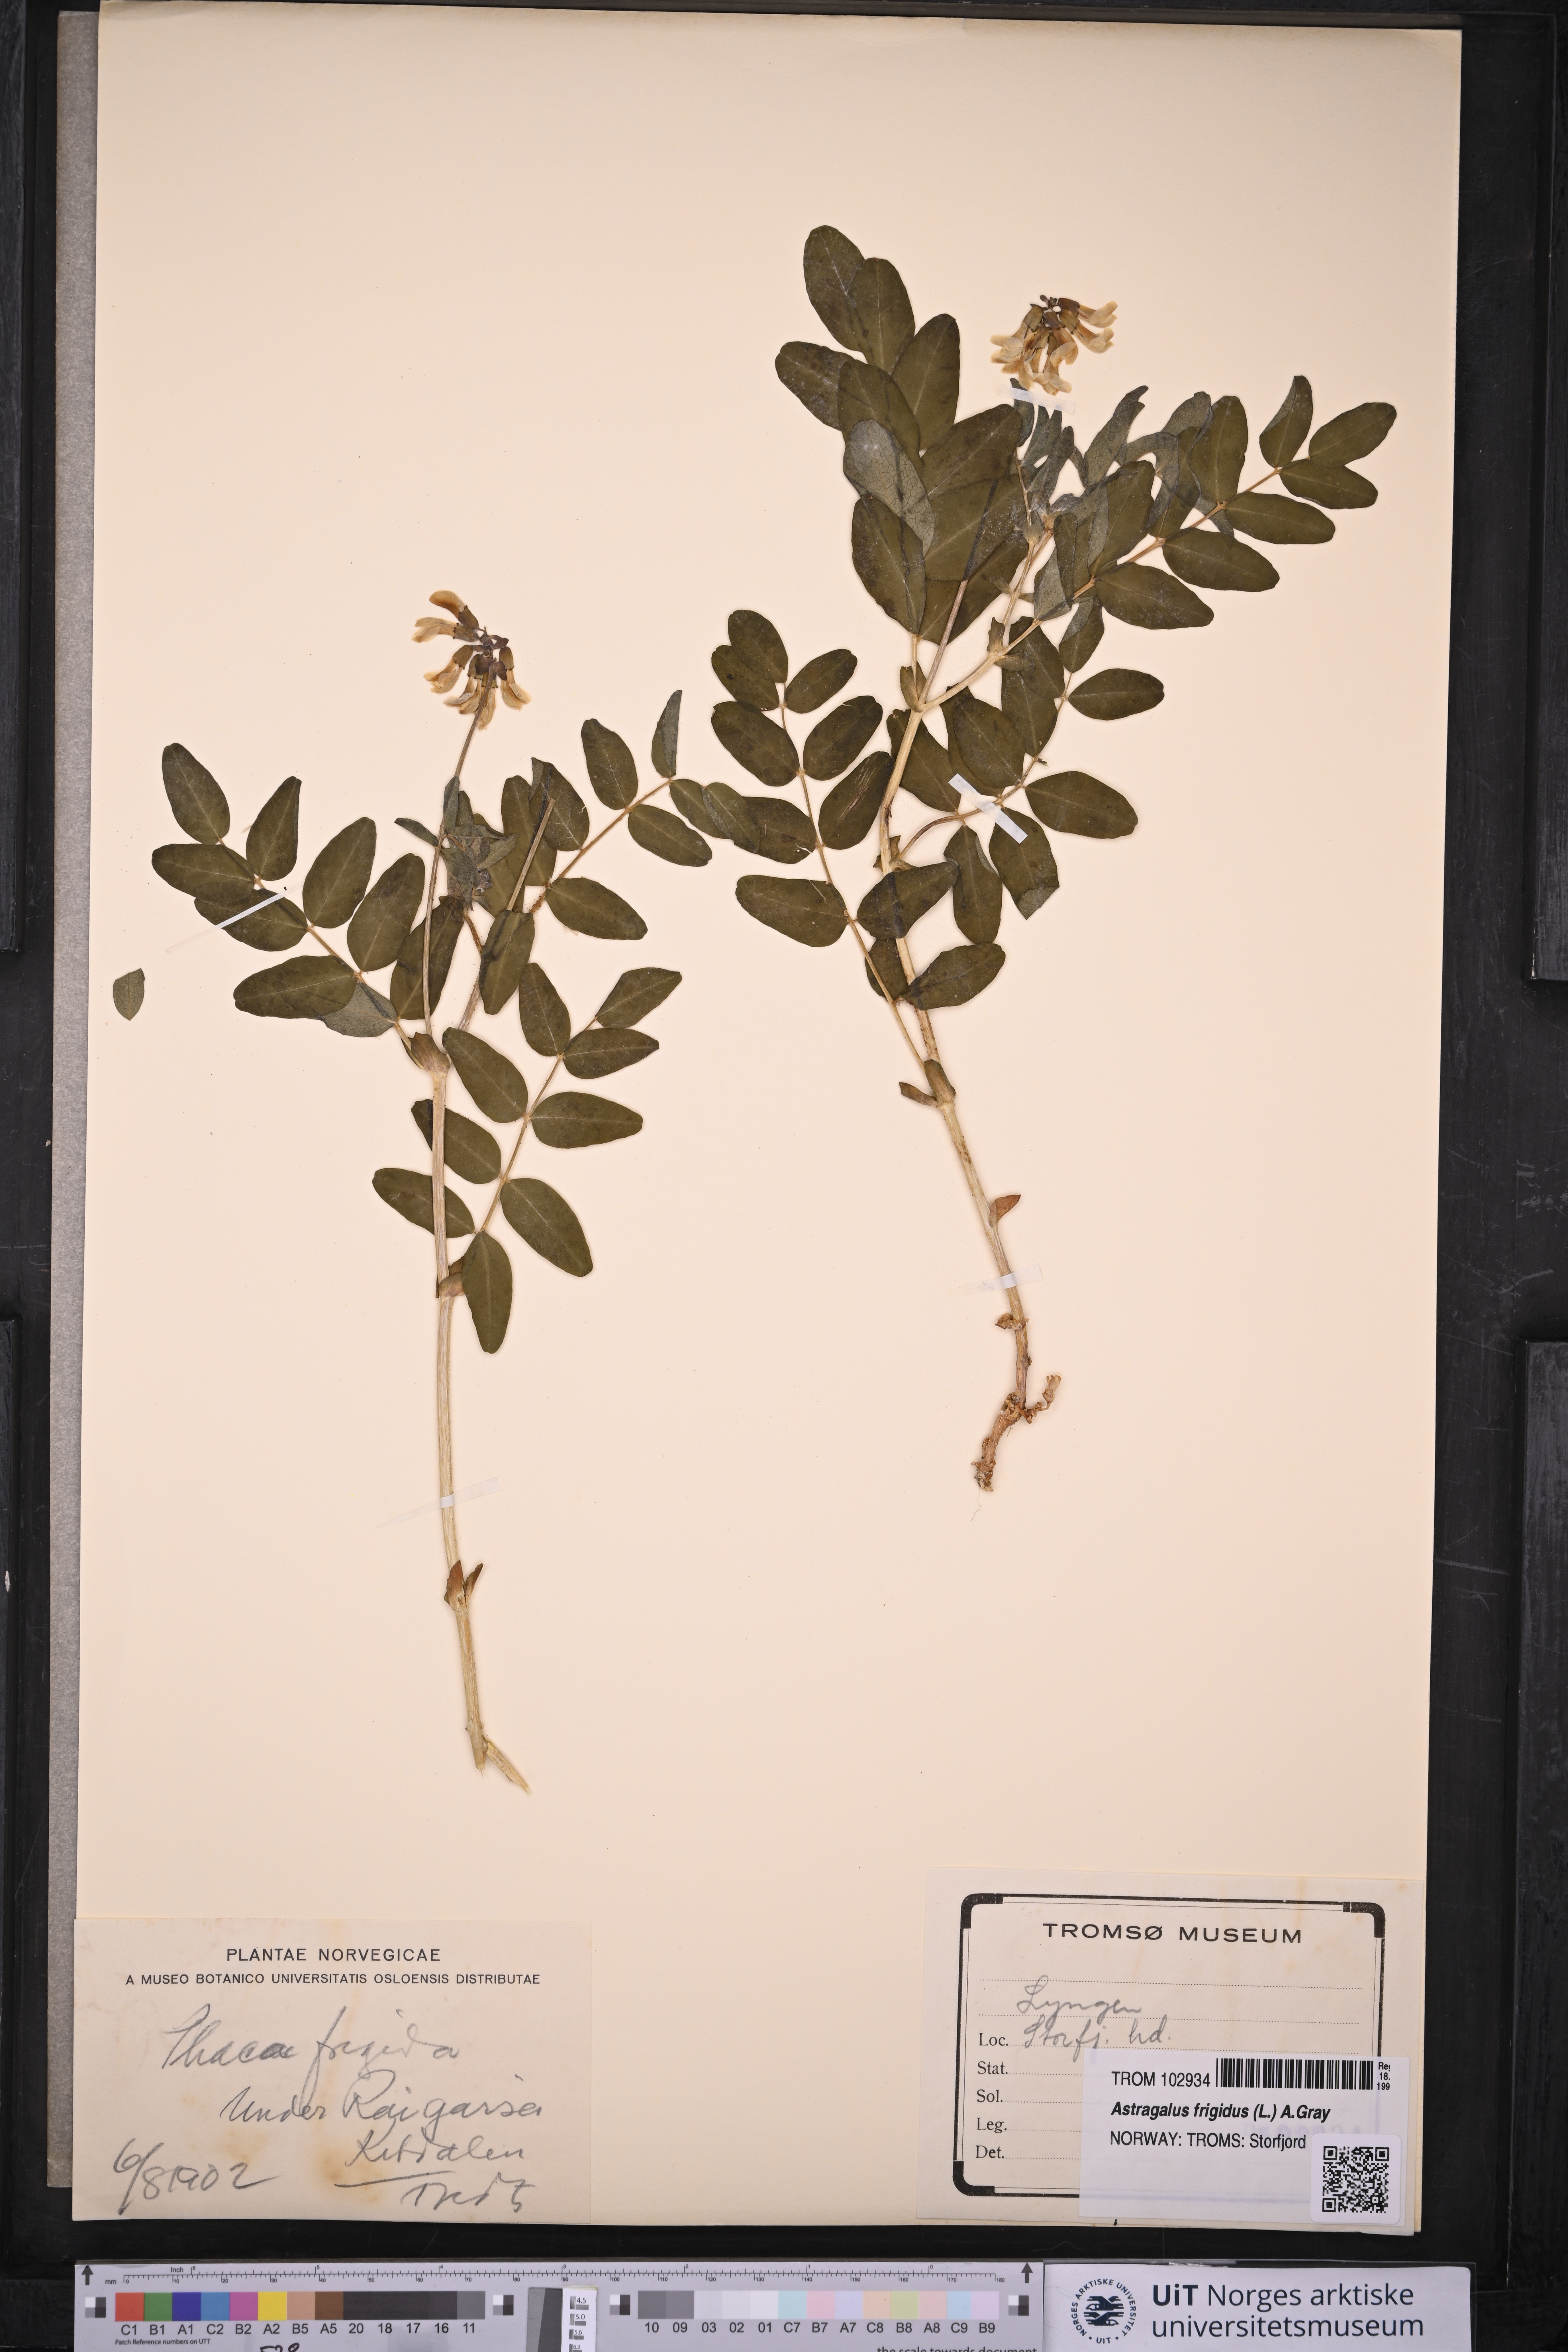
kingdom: Plantae
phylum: Tracheophyta
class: Magnoliopsida
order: Fabales
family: Fabaceae
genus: Astragalus
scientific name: Astragalus frigidus
